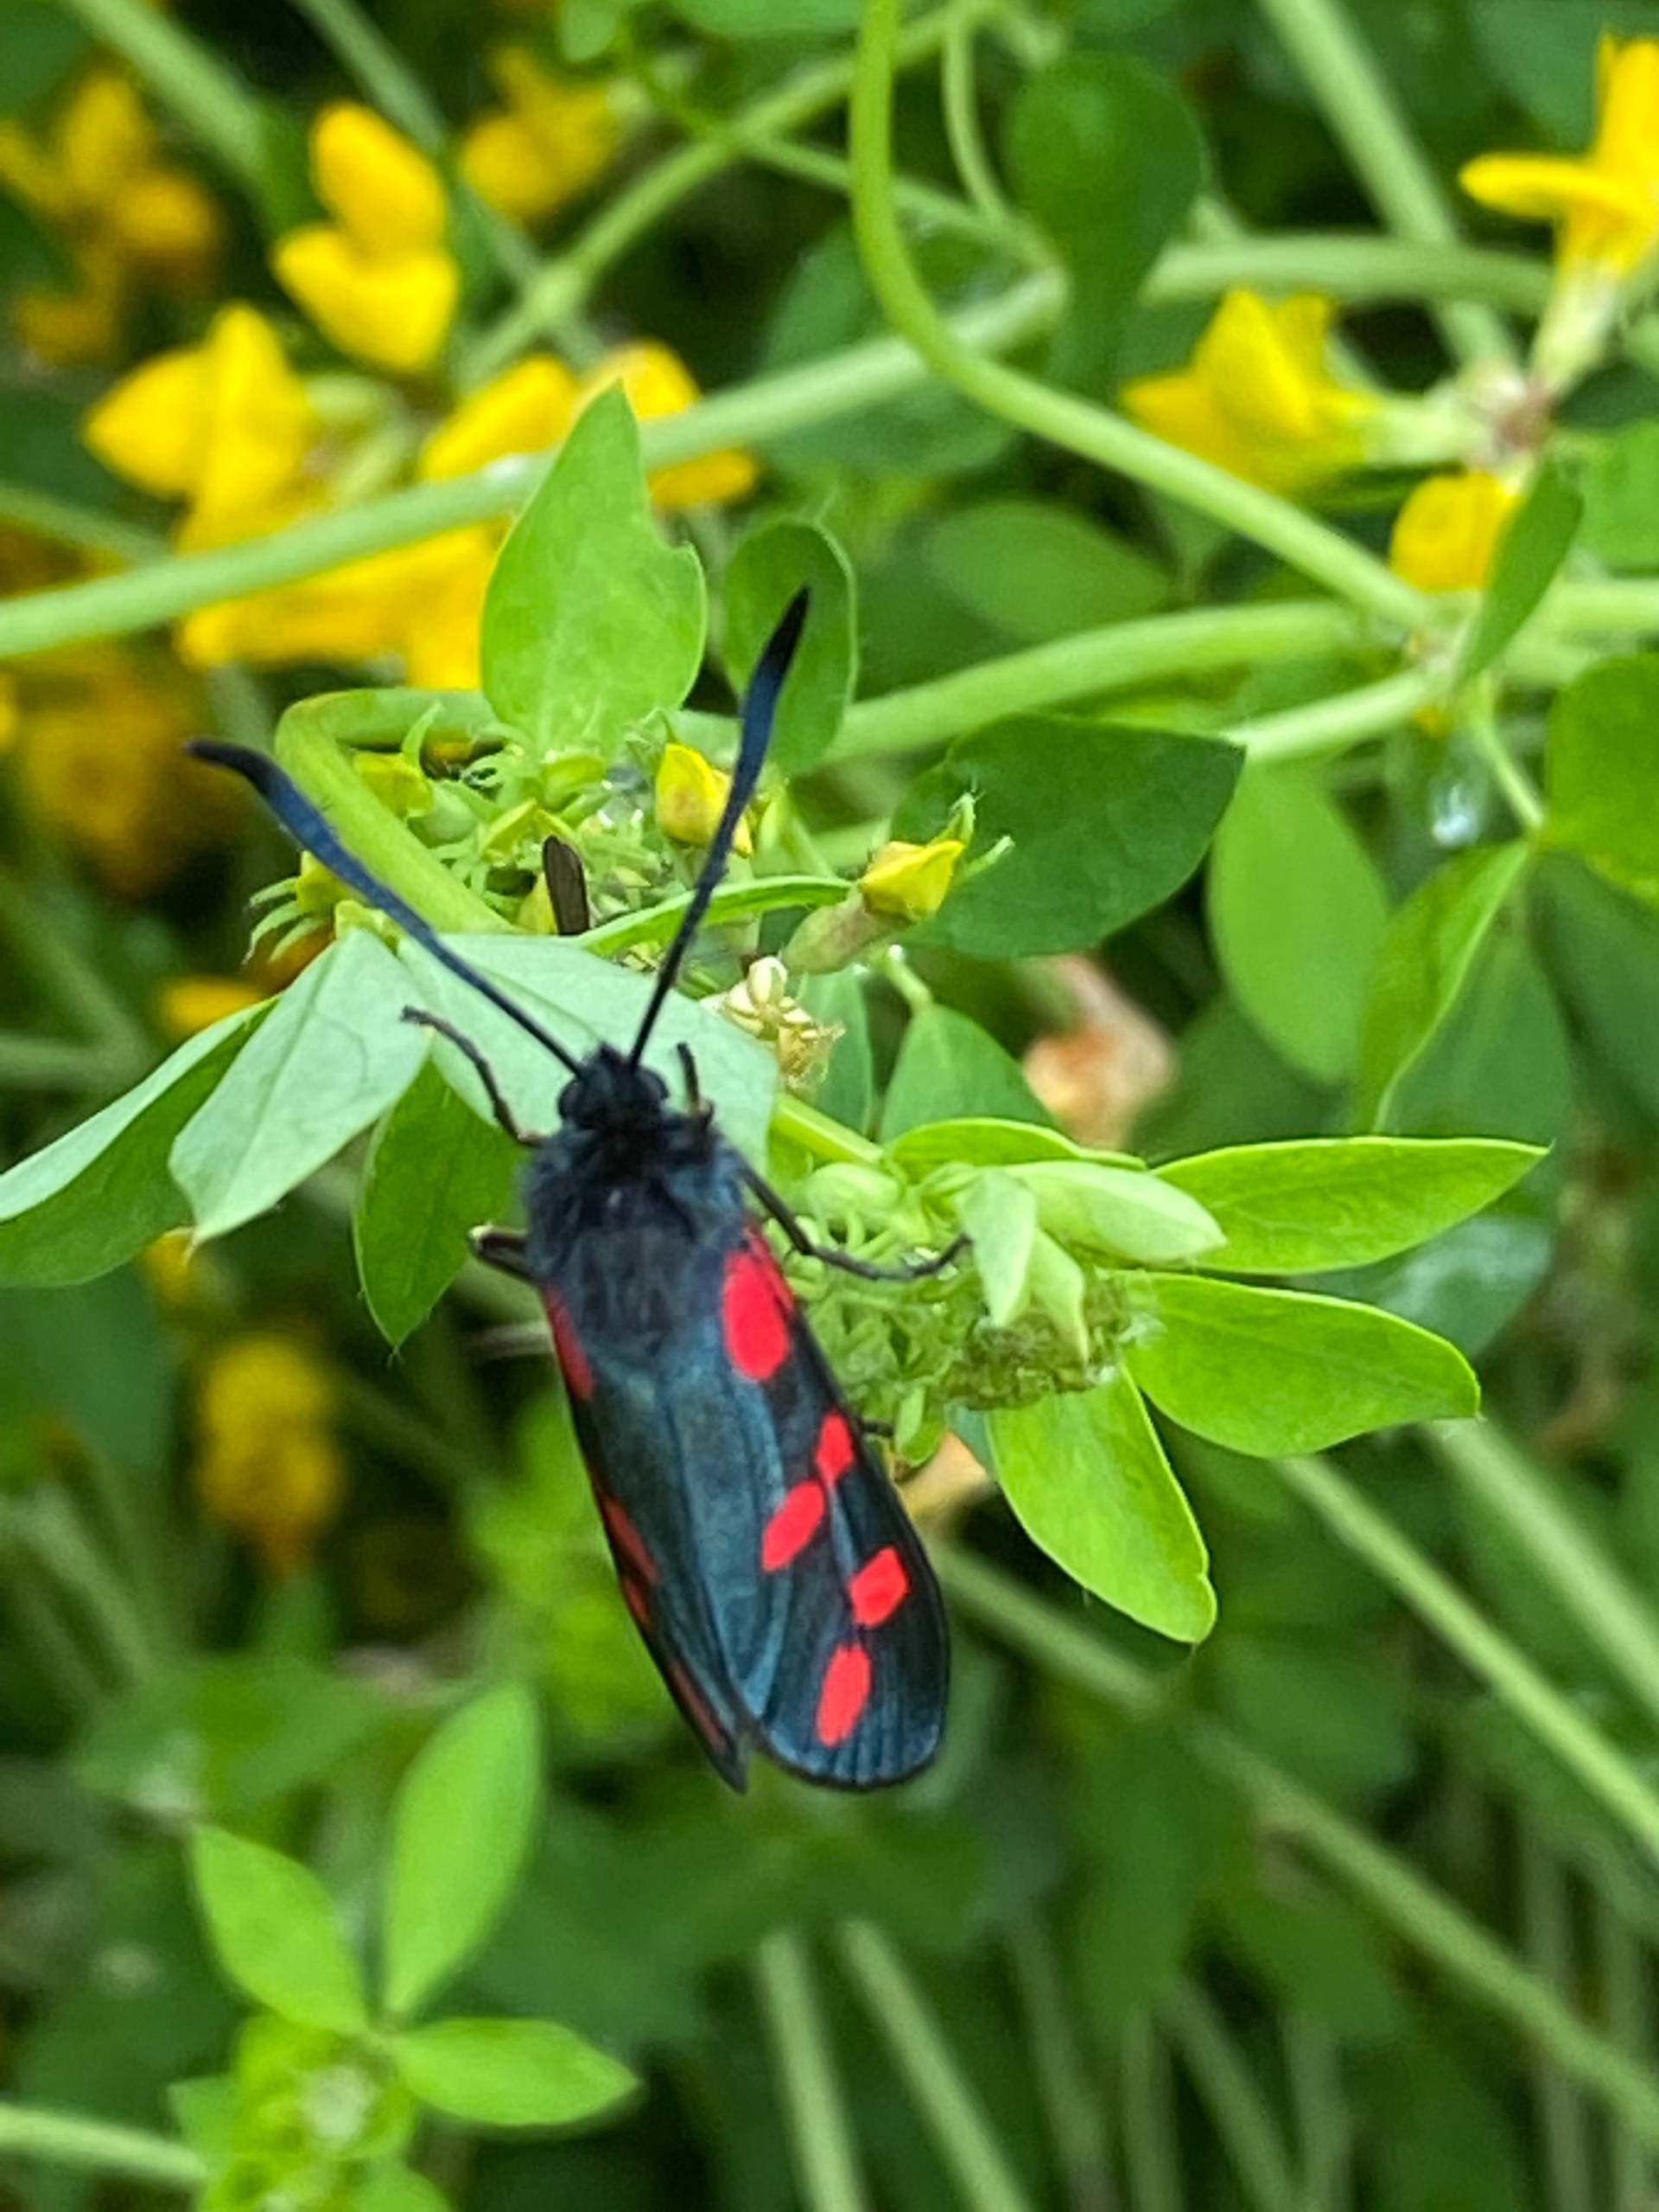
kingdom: Animalia
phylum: Arthropoda
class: Insecta
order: Lepidoptera
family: Zygaenidae
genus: Zygaena
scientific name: Zygaena filipendulae
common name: Seksplettet køllesværmer
